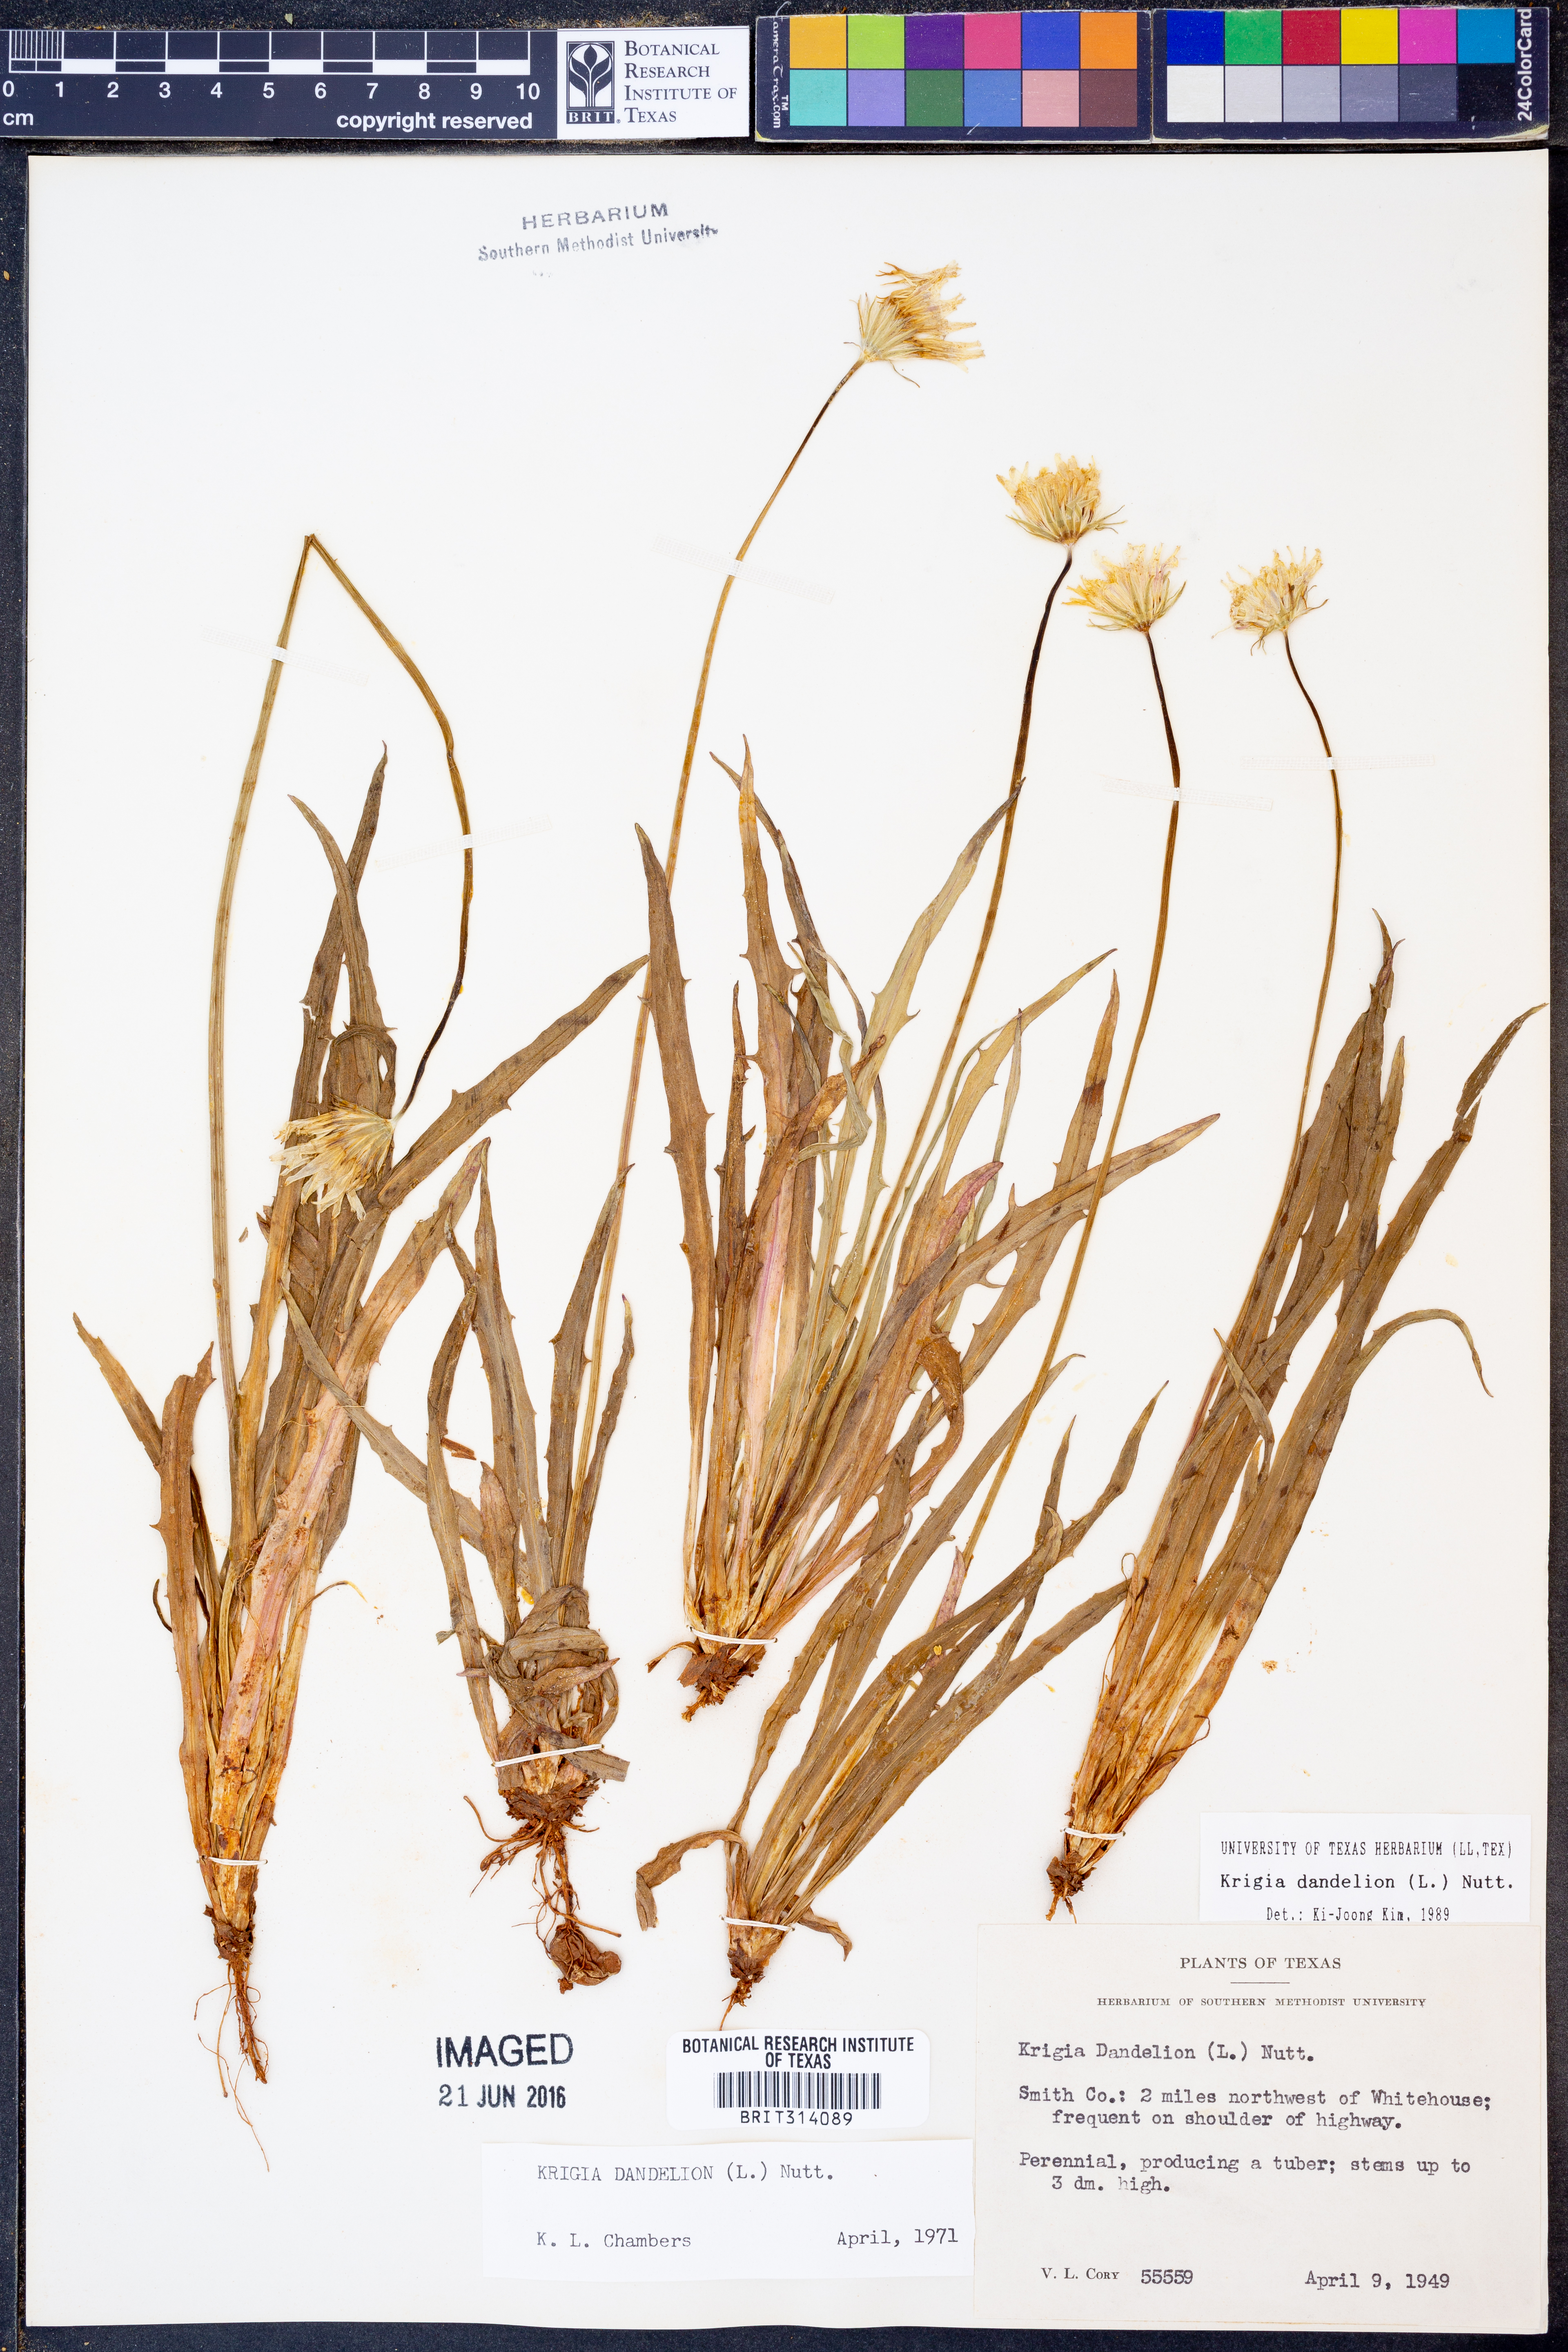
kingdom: Plantae
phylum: Tracheophyta
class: Magnoliopsida
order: Asterales
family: Asteraceae
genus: Krigia
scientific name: Krigia dandelion
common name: Colonial dwarf-dandelion
